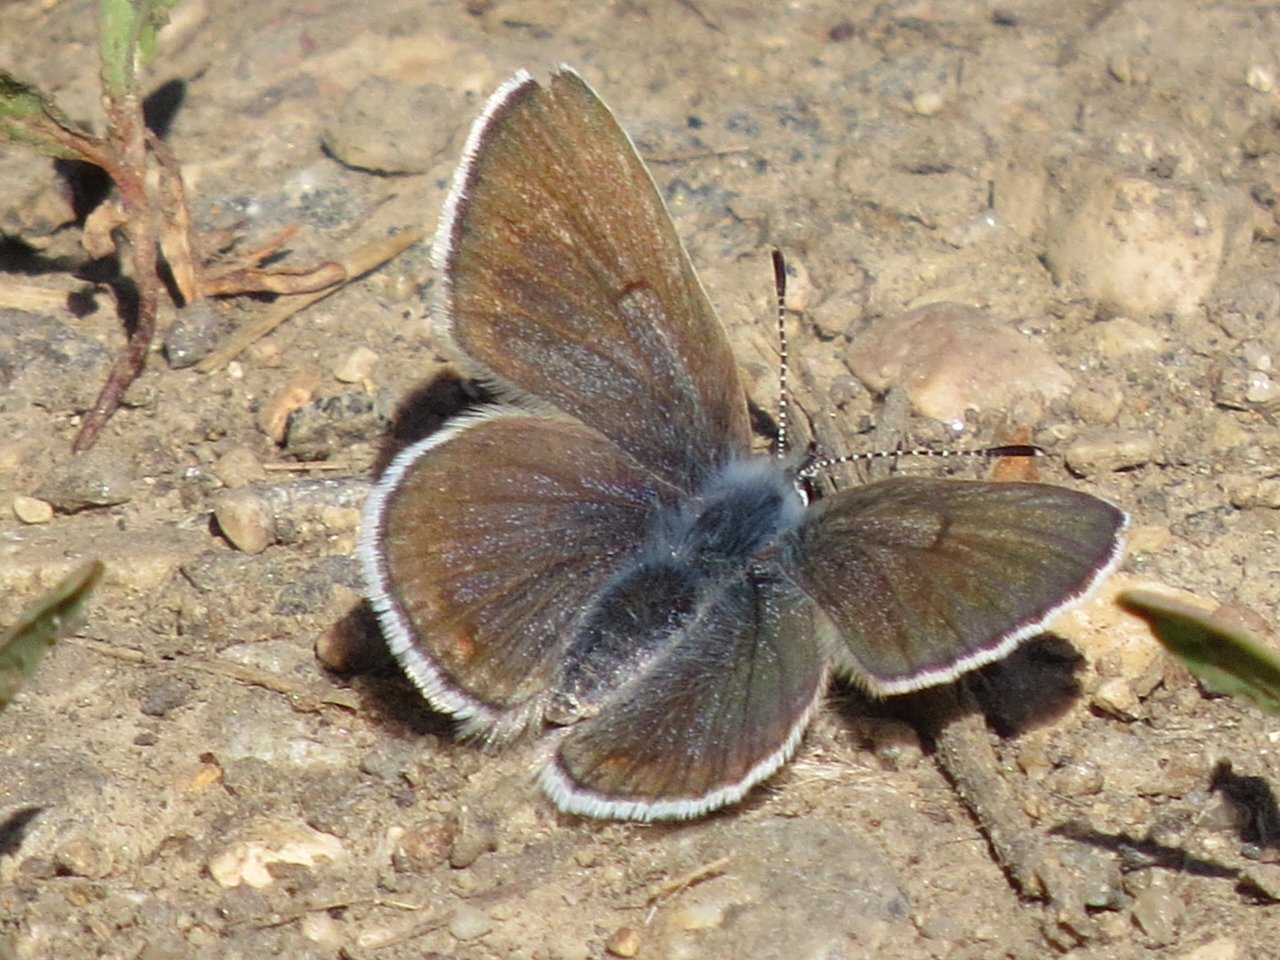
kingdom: Animalia
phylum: Arthropoda
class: Insecta
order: Lepidoptera
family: Lycaenidae
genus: Agriades
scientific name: Agriades glandon
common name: Arctic Blue
